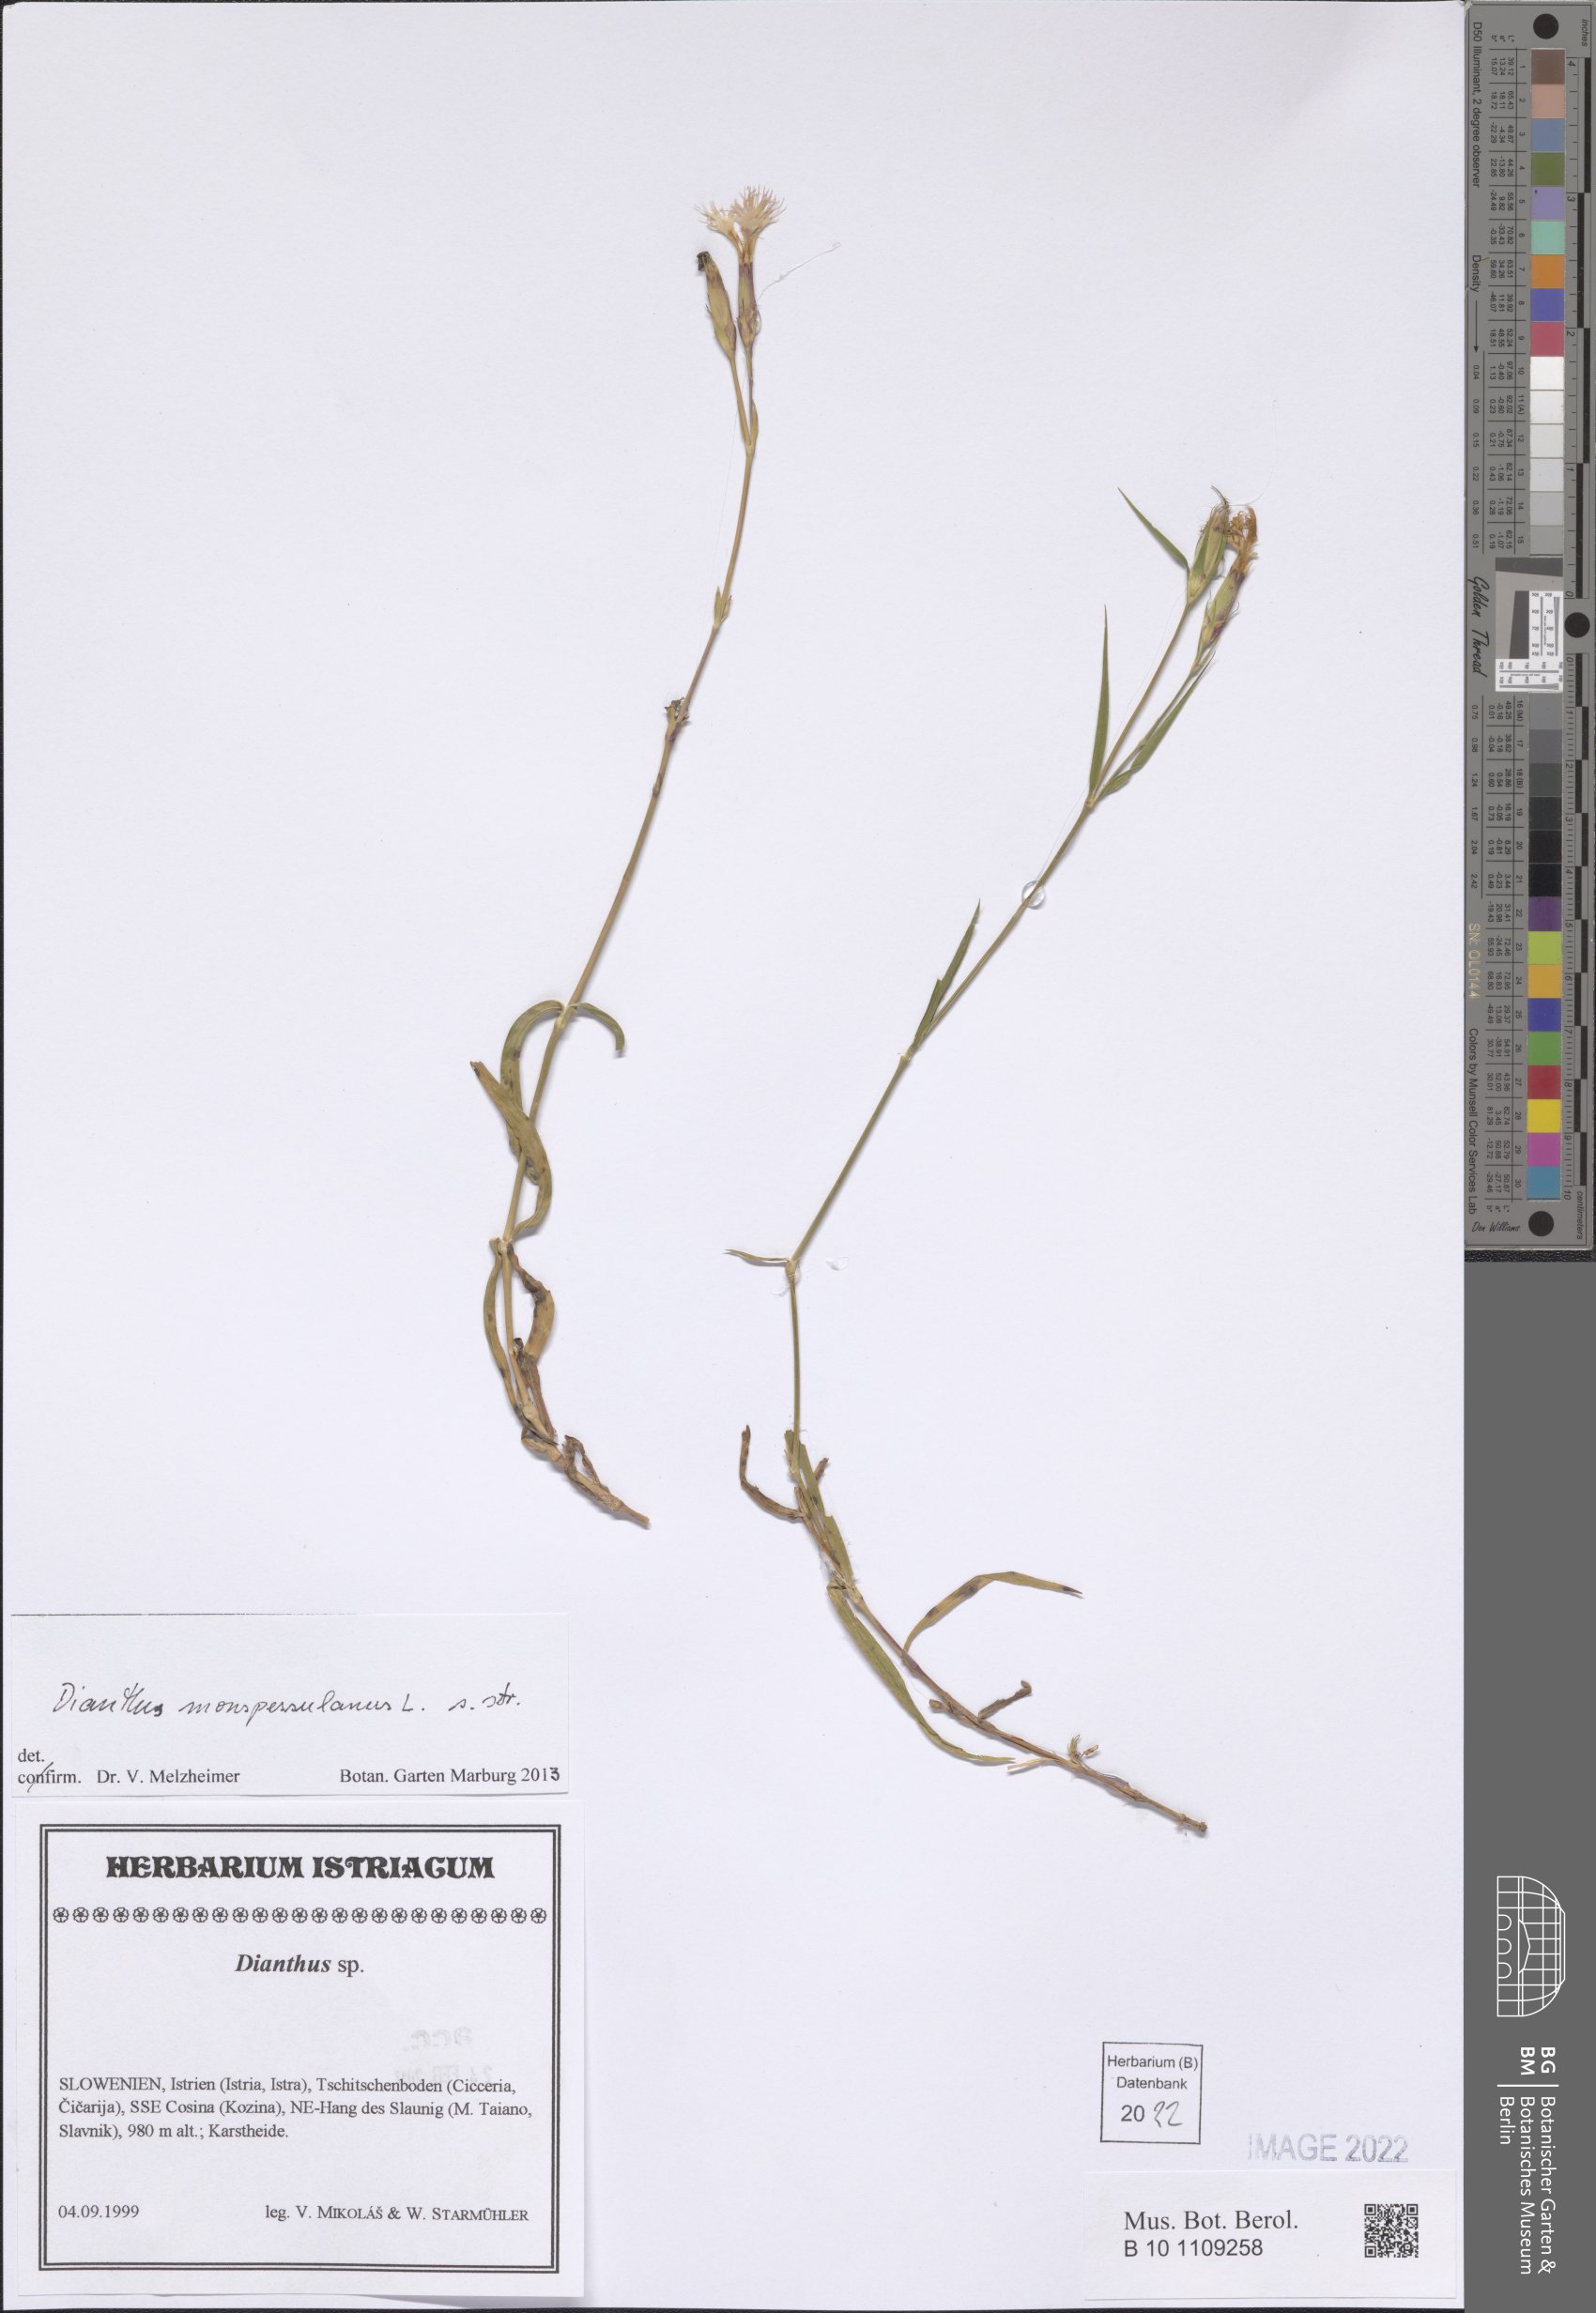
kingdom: Plantae
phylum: Tracheophyta
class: Magnoliopsida
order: Caryophyllales
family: Caryophyllaceae
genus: Dianthus
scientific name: Dianthus hyssopifolius
